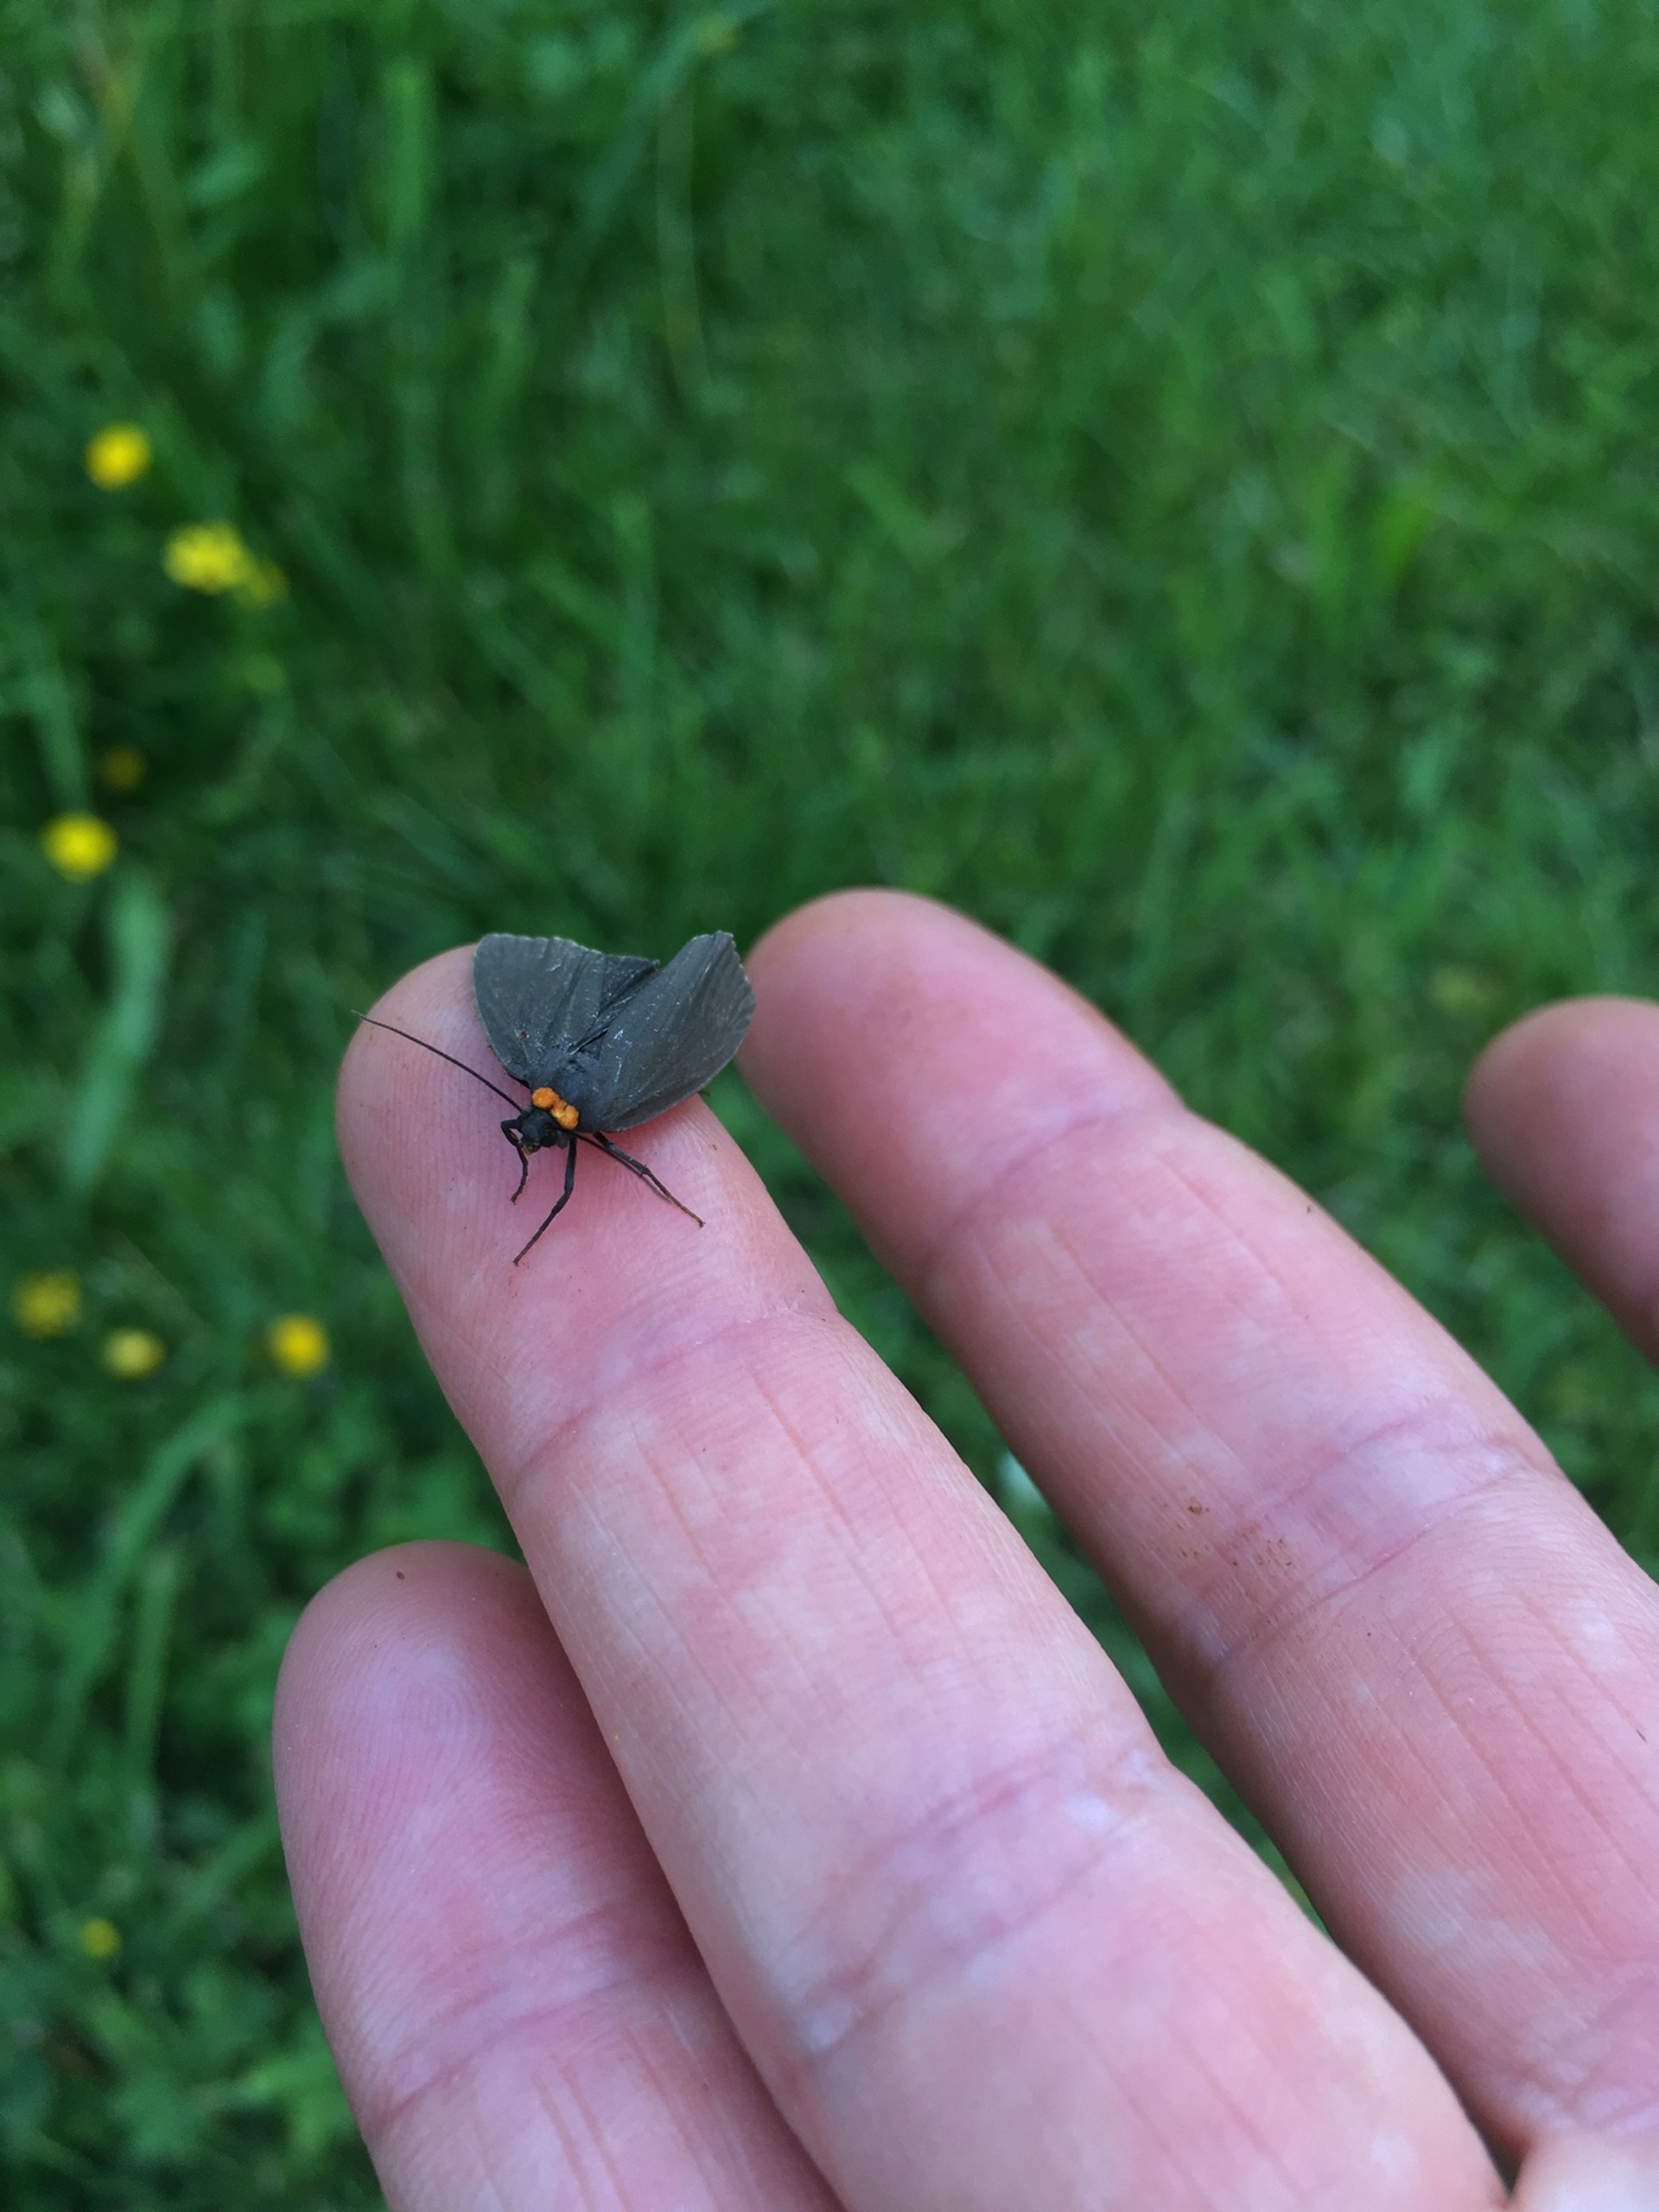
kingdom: Animalia
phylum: Arthropoda
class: Insecta
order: Lepidoptera
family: Erebidae
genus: Atolmis
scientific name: Atolmis rubricollis
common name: Blodnakke
